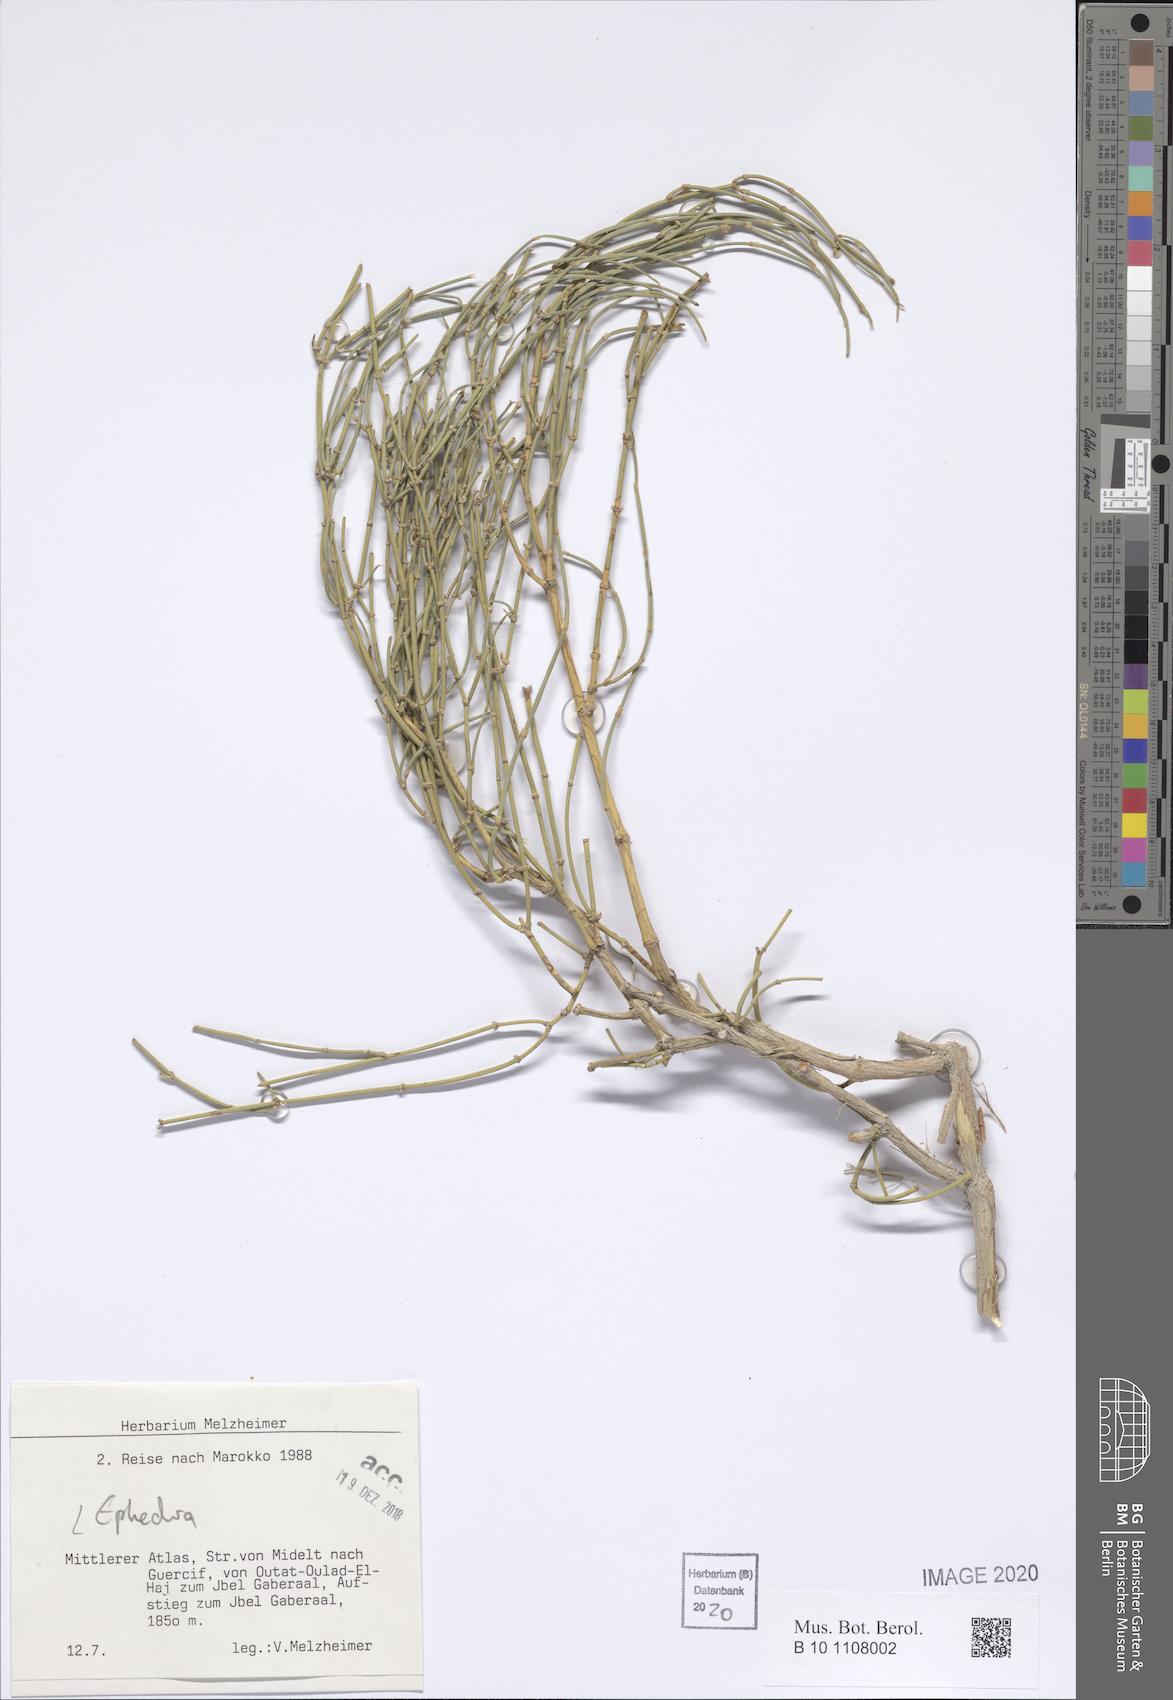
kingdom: Plantae
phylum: Tracheophyta
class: Gnetopsida
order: Ephedrales
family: Ephedraceae
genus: Ephedra
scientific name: Ephedra
